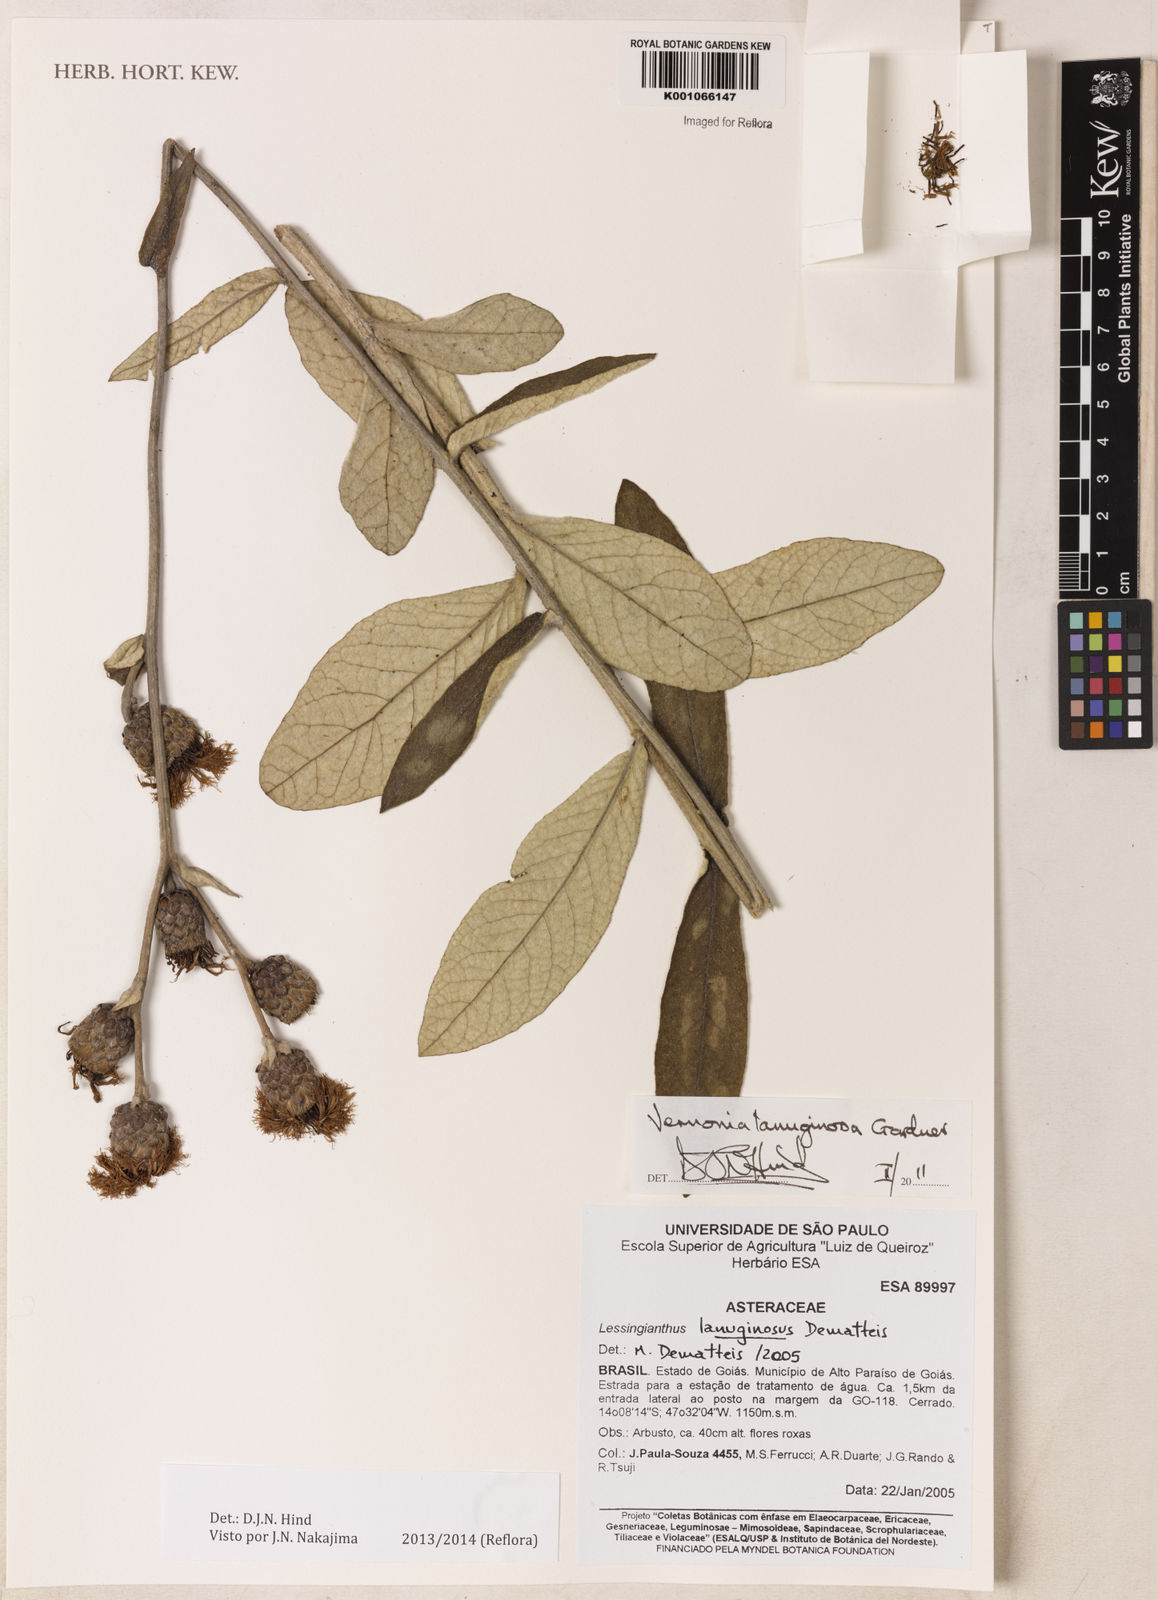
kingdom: Plantae
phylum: Tracheophyta
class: Magnoliopsida
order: Asterales
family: Asteraceae
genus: Cyrtocymura
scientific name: Cyrtocymura scorpioides
